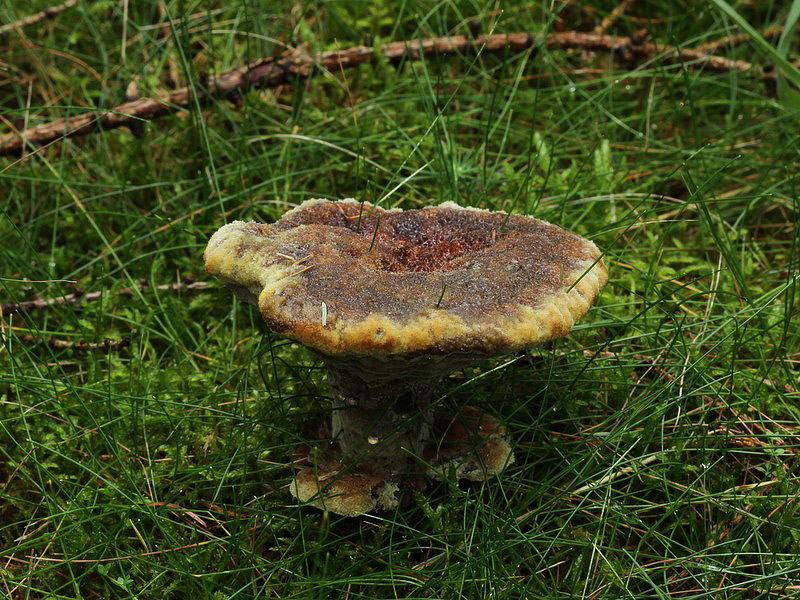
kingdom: Fungi
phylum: Basidiomycota
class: Agaricomycetes
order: Polyporales
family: Laetiporaceae
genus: Phaeolus
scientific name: Phaeolus schweinitzii
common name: brunporesvamp
